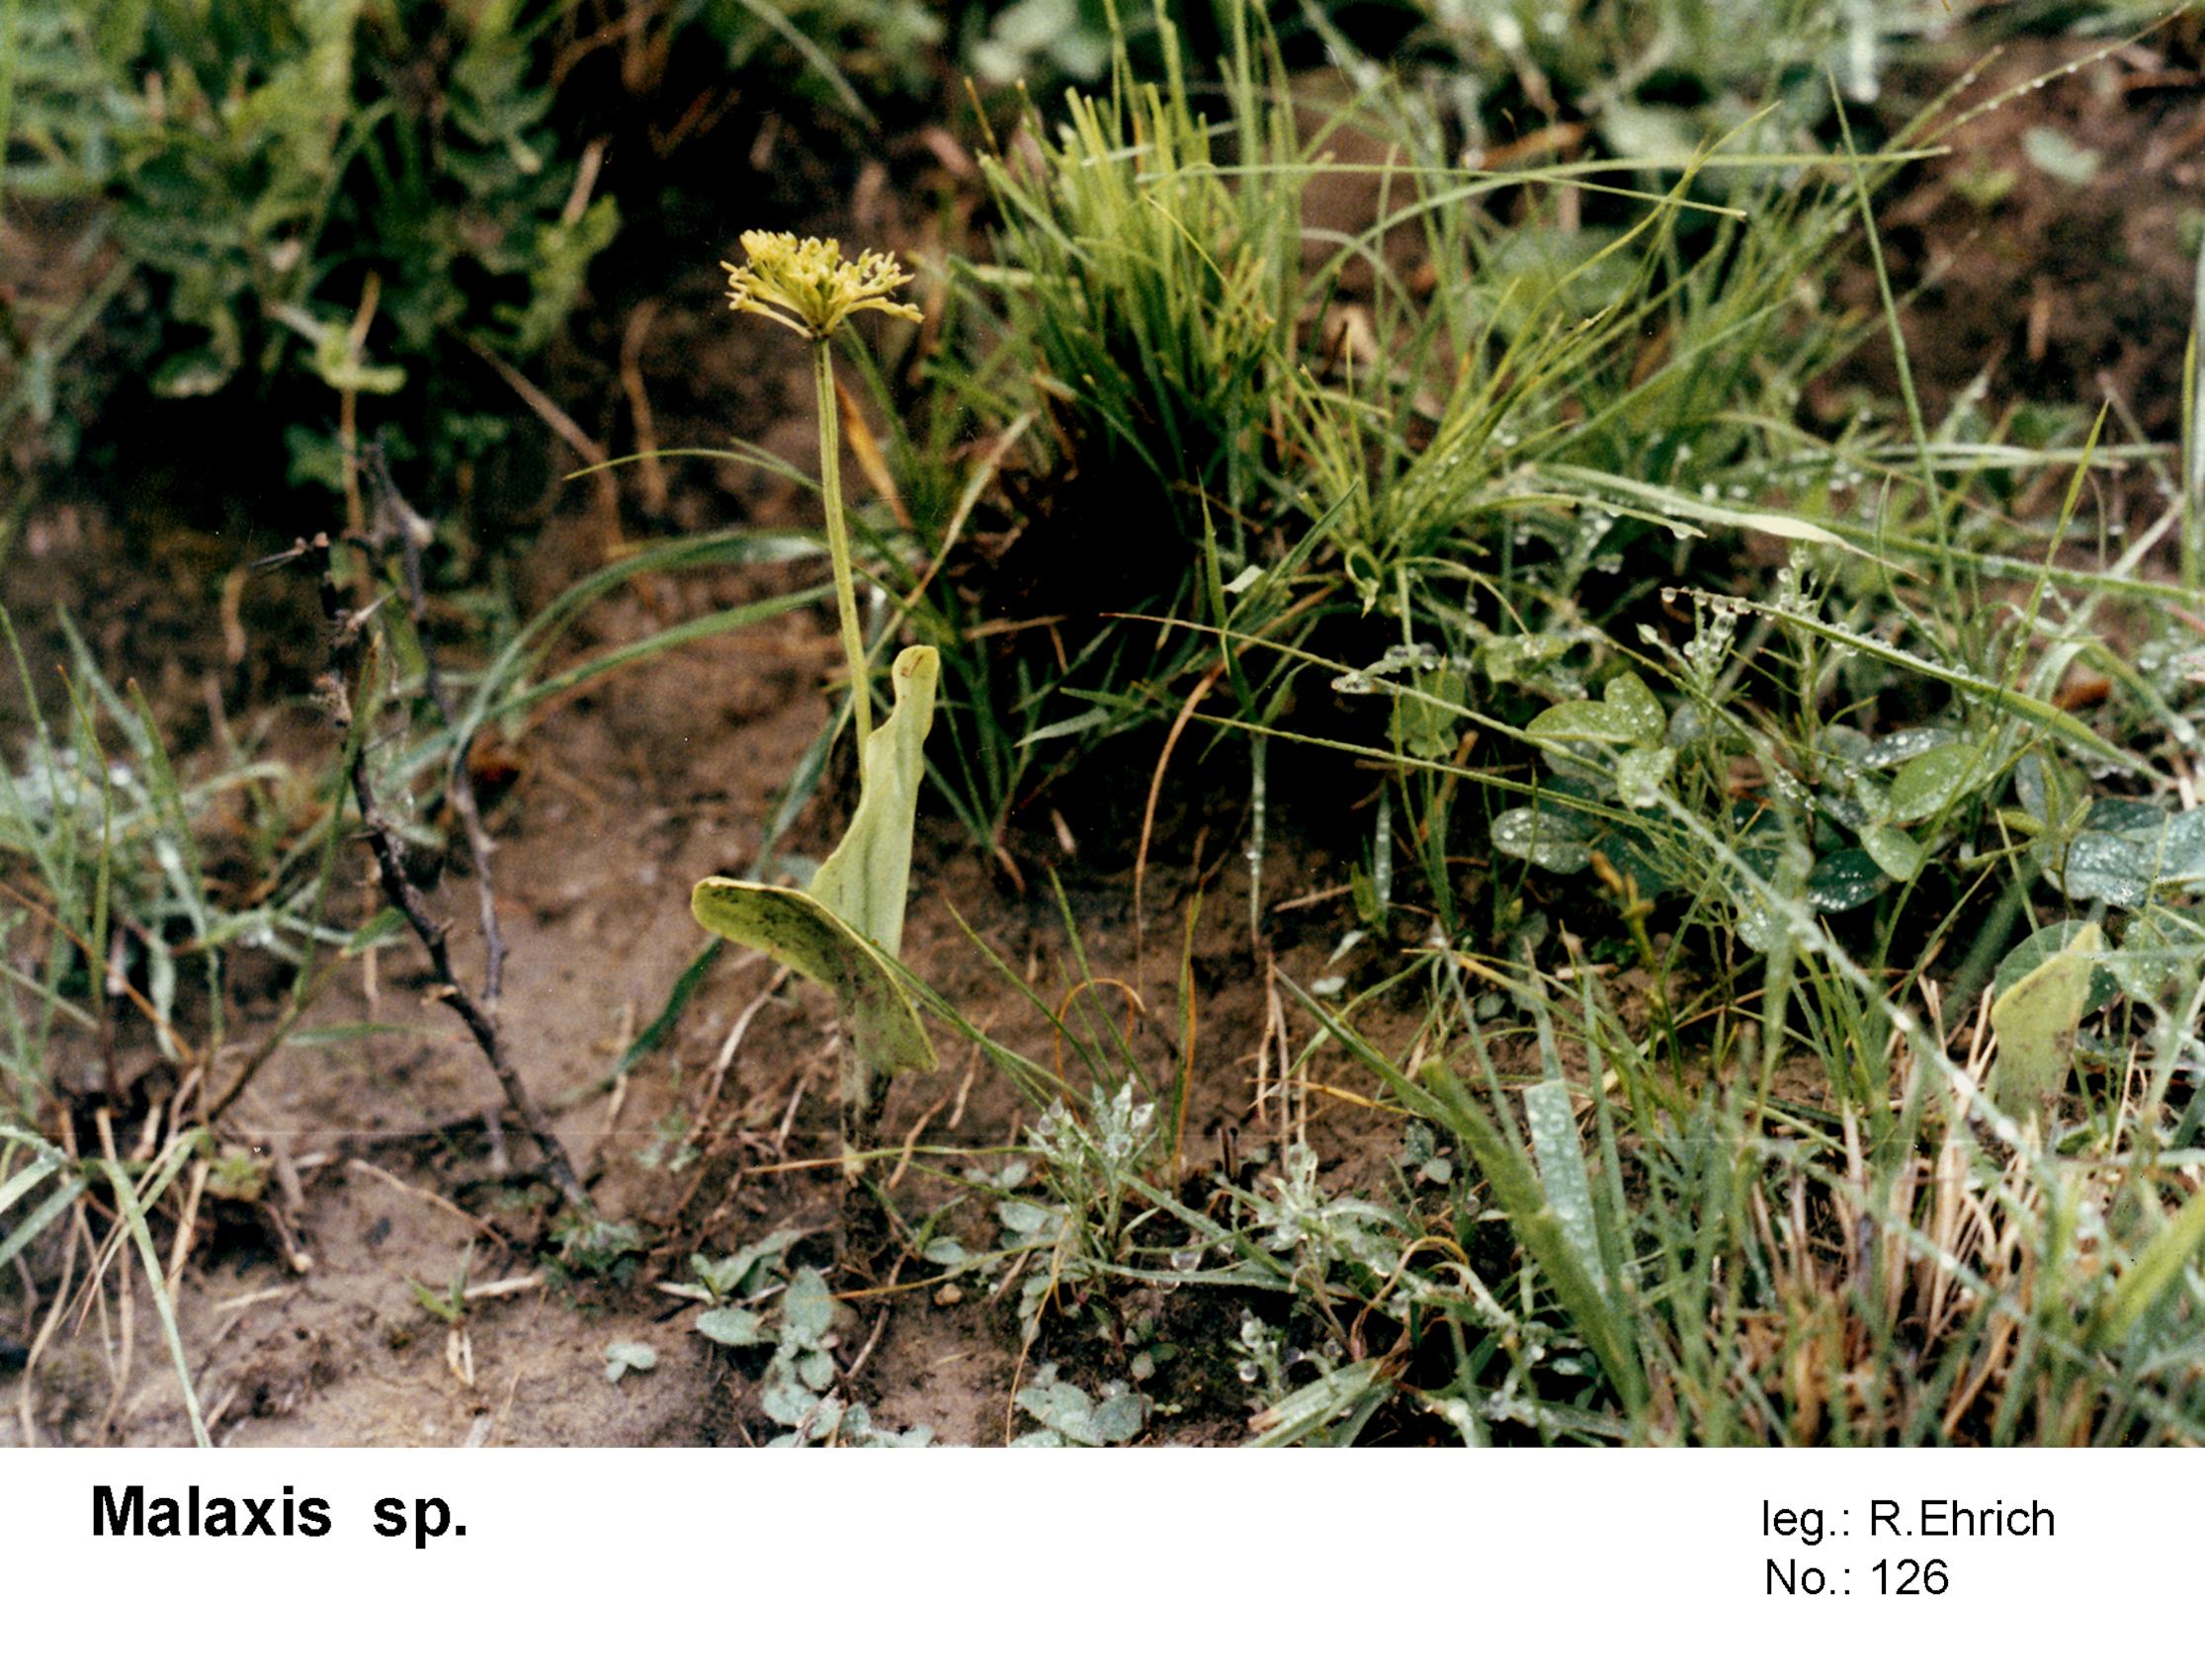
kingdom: Plantae
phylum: Tracheophyta
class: Liliopsida
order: Asparagales
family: Orchidaceae
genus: Malaxis
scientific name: Malaxis
